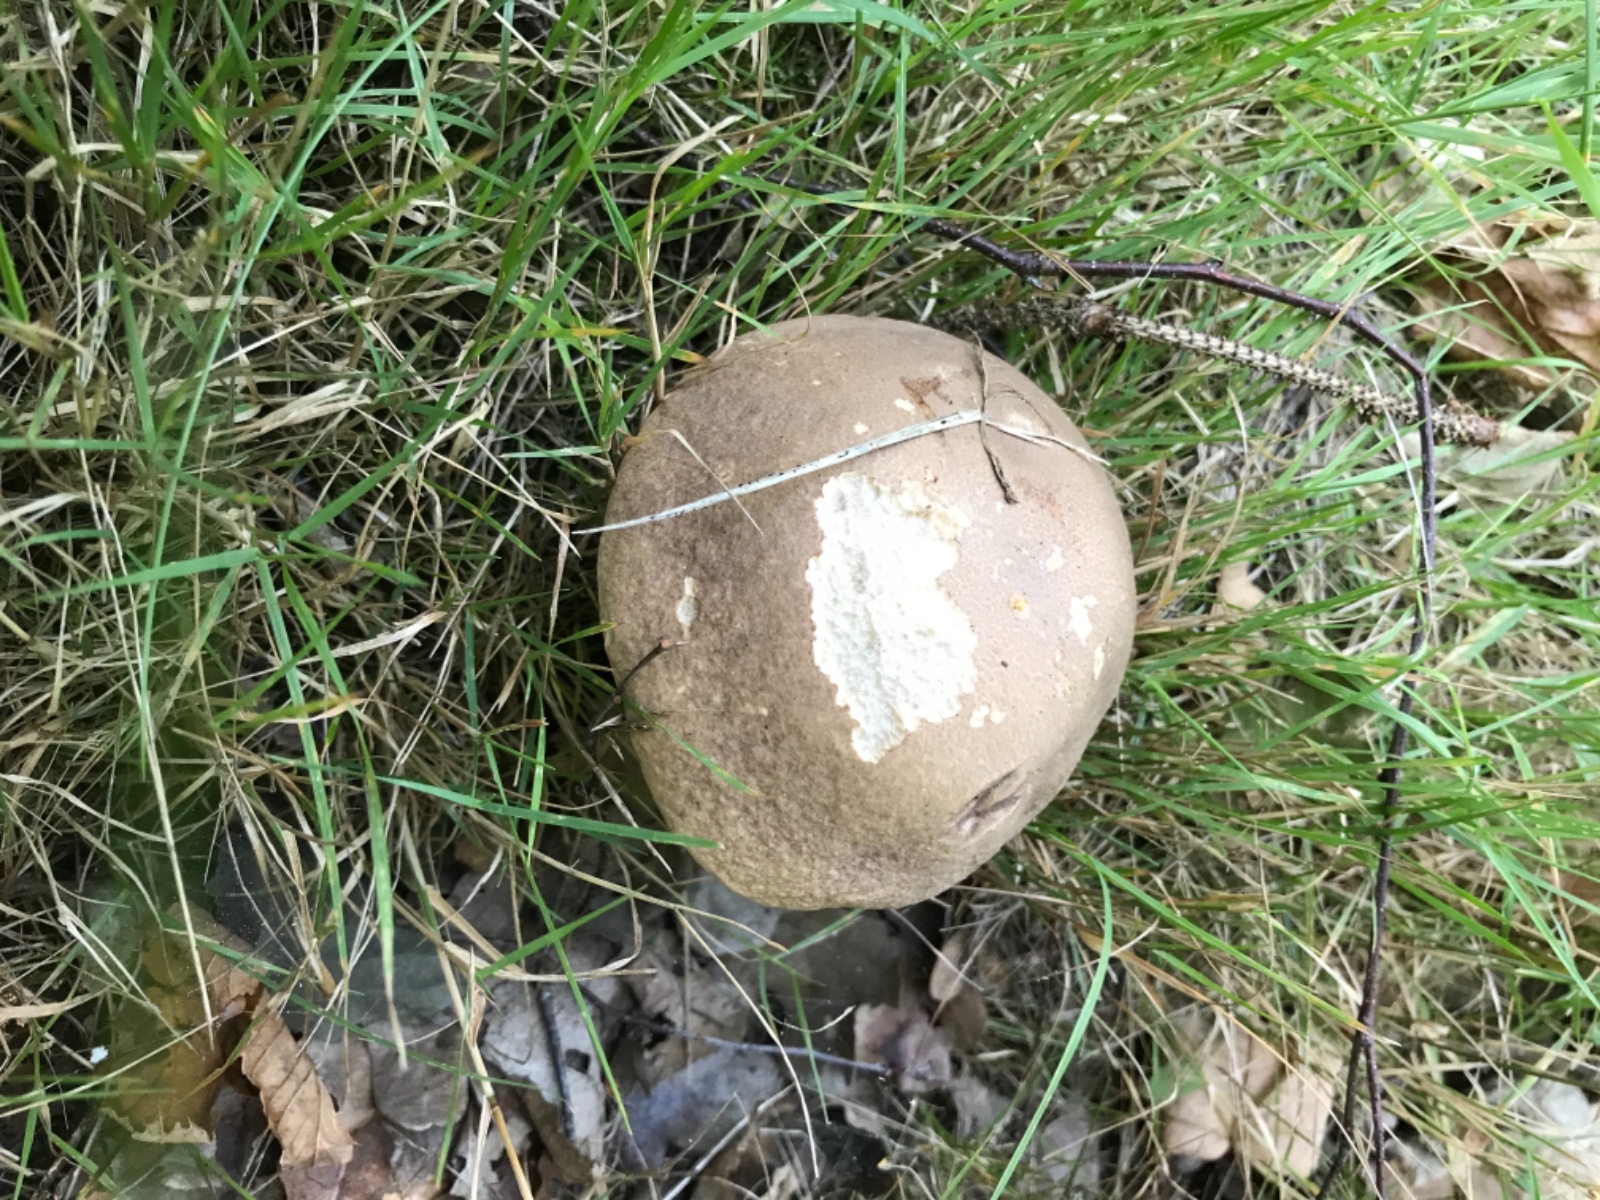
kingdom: Fungi
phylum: Basidiomycota
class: Agaricomycetes
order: Boletales
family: Boletaceae
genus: Leccinum
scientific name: Leccinum duriusculum
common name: poppel-skælrørhat
